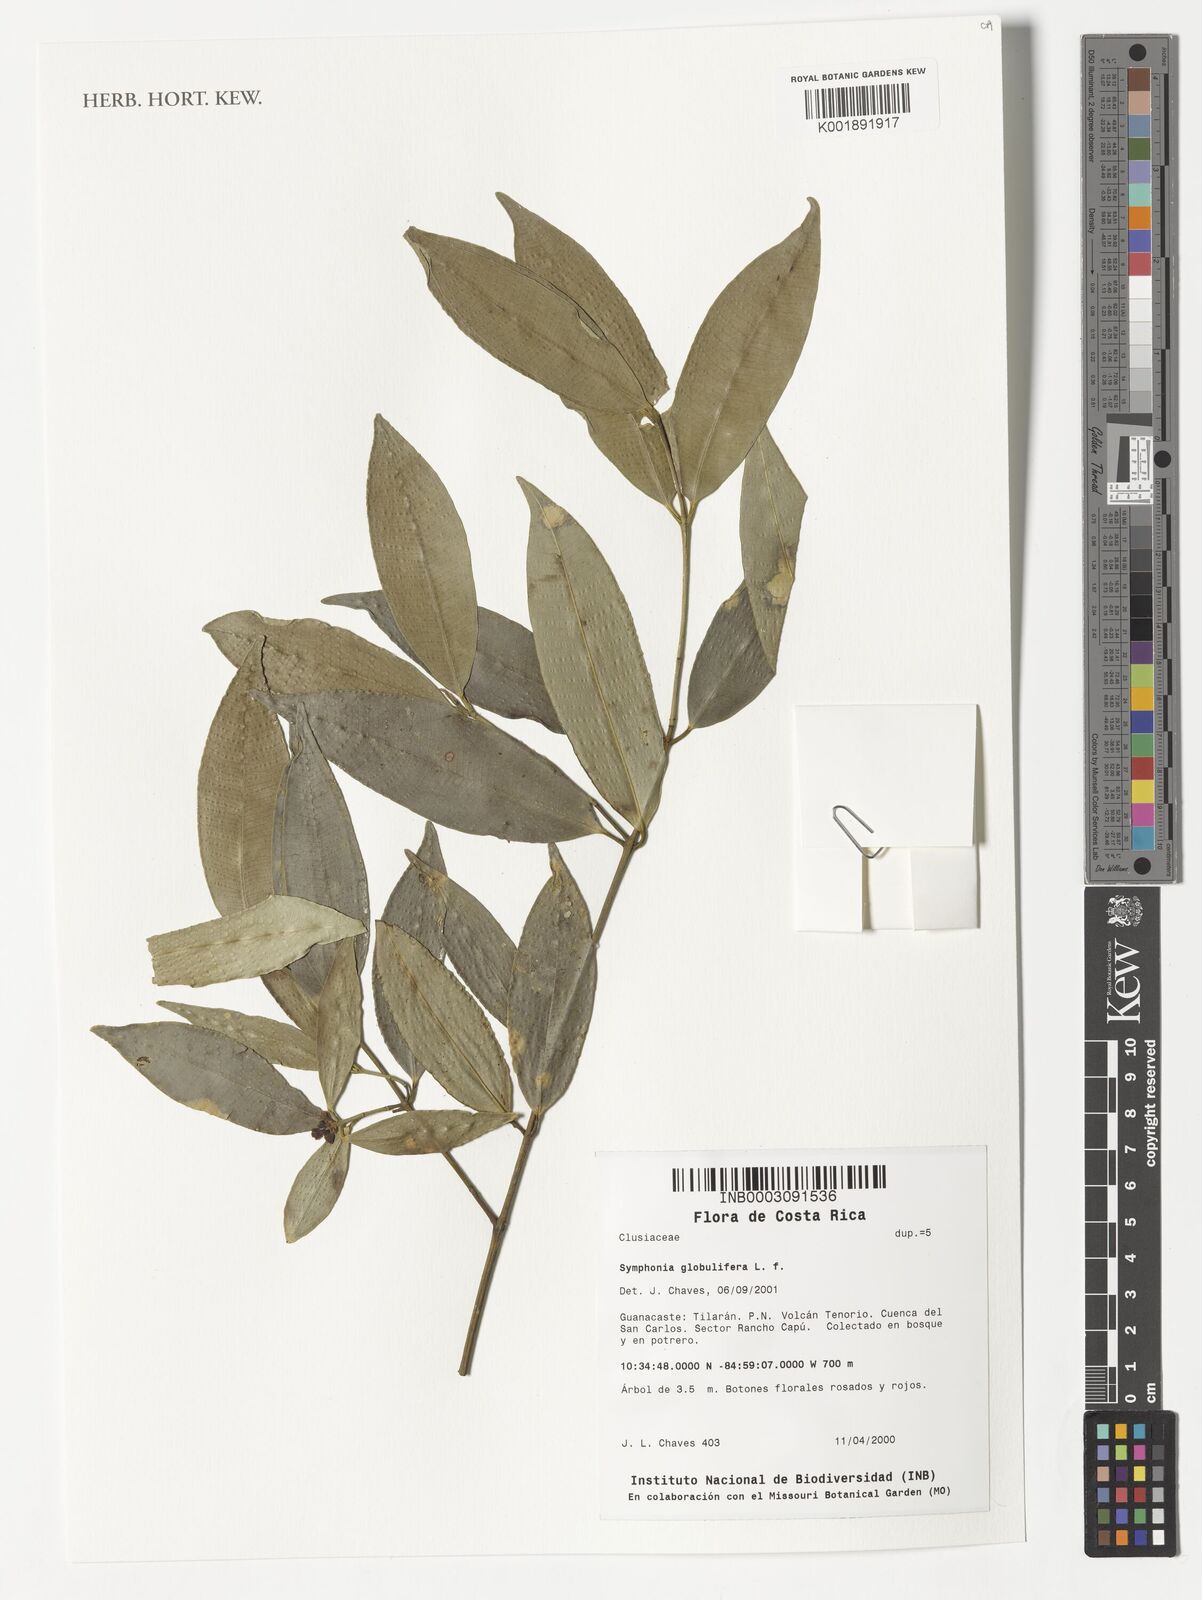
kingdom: Plantae
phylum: Tracheophyta
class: Magnoliopsida
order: Malpighiales
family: Clusiaceae
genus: Symphonia
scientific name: Symphonia globulifera
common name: Boarwood
